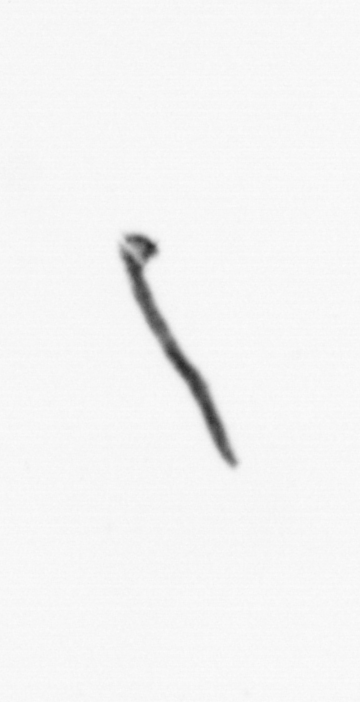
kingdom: Bacteria
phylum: Cyanobacteria
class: Cyanobacteriia
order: Cyanobacteriales
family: Microcoleaceae
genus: Trichodesmium
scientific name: Trichodesmium
